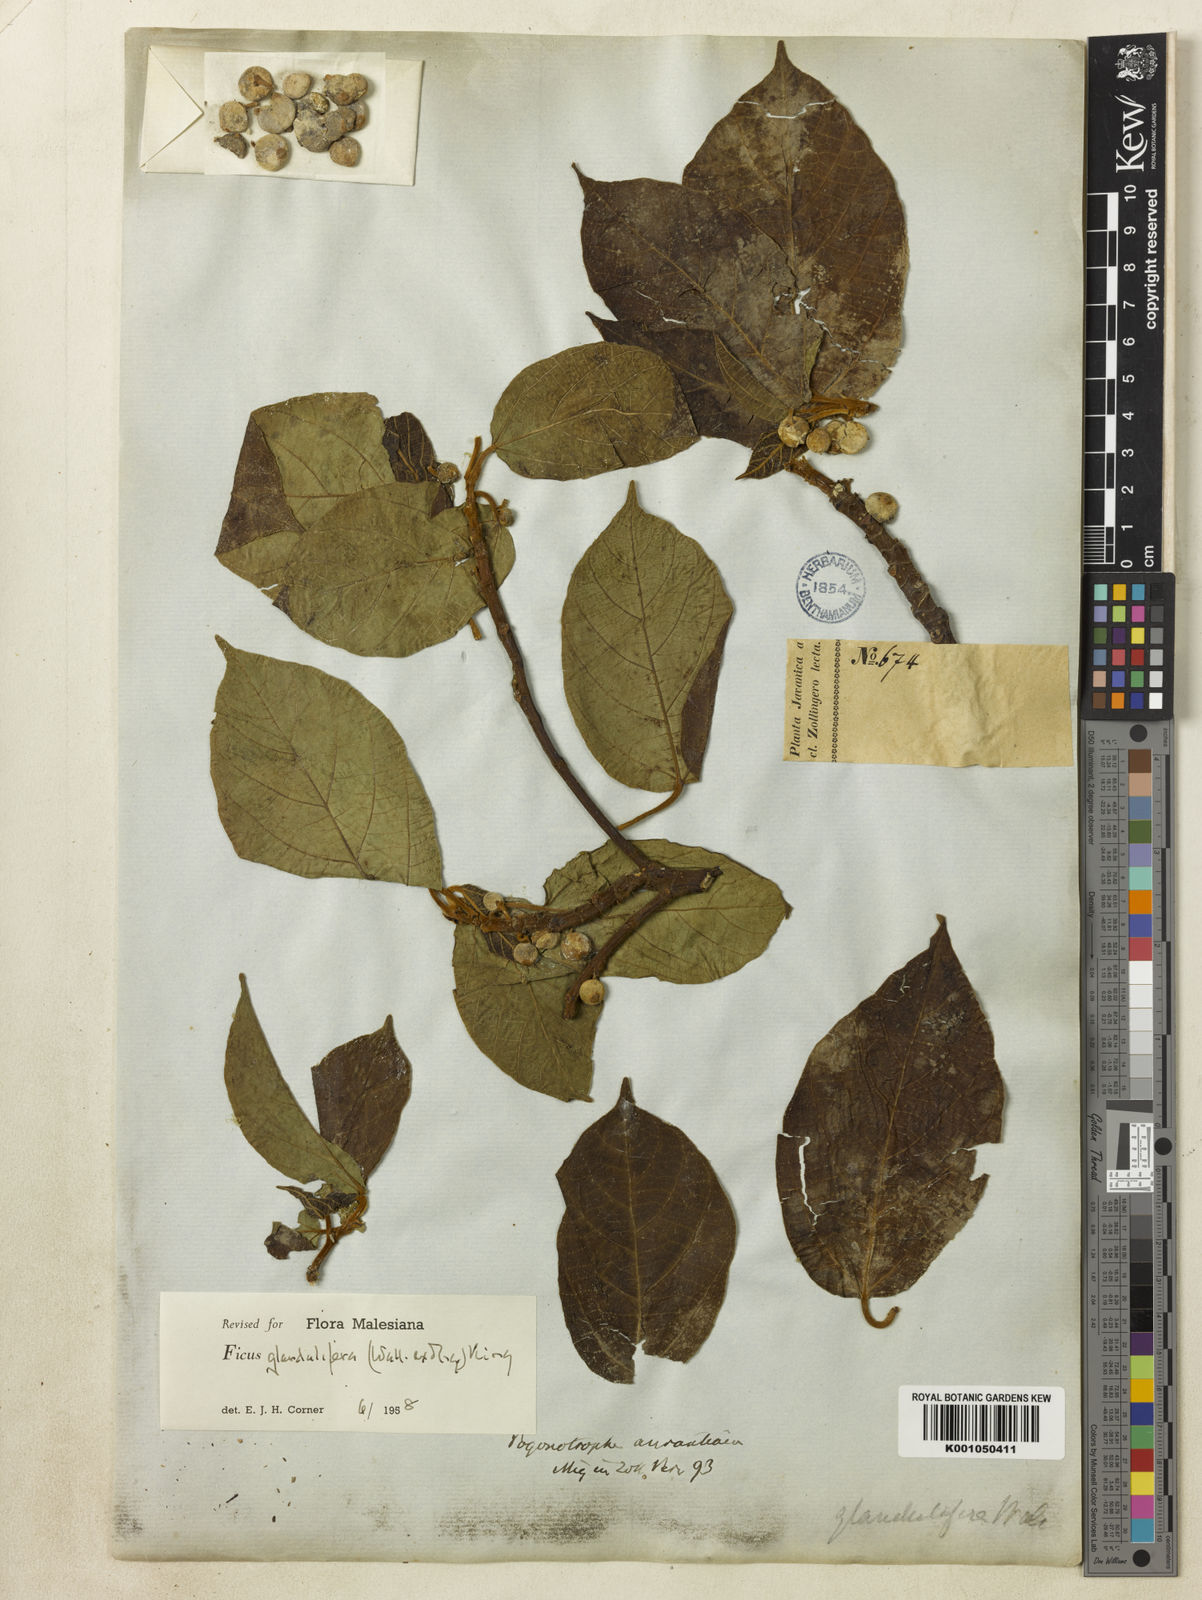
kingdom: Plantae
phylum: Tracheophyta
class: Magnoliopsida
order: Rosales
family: Moraceae
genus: Ficus
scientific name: Ficus
